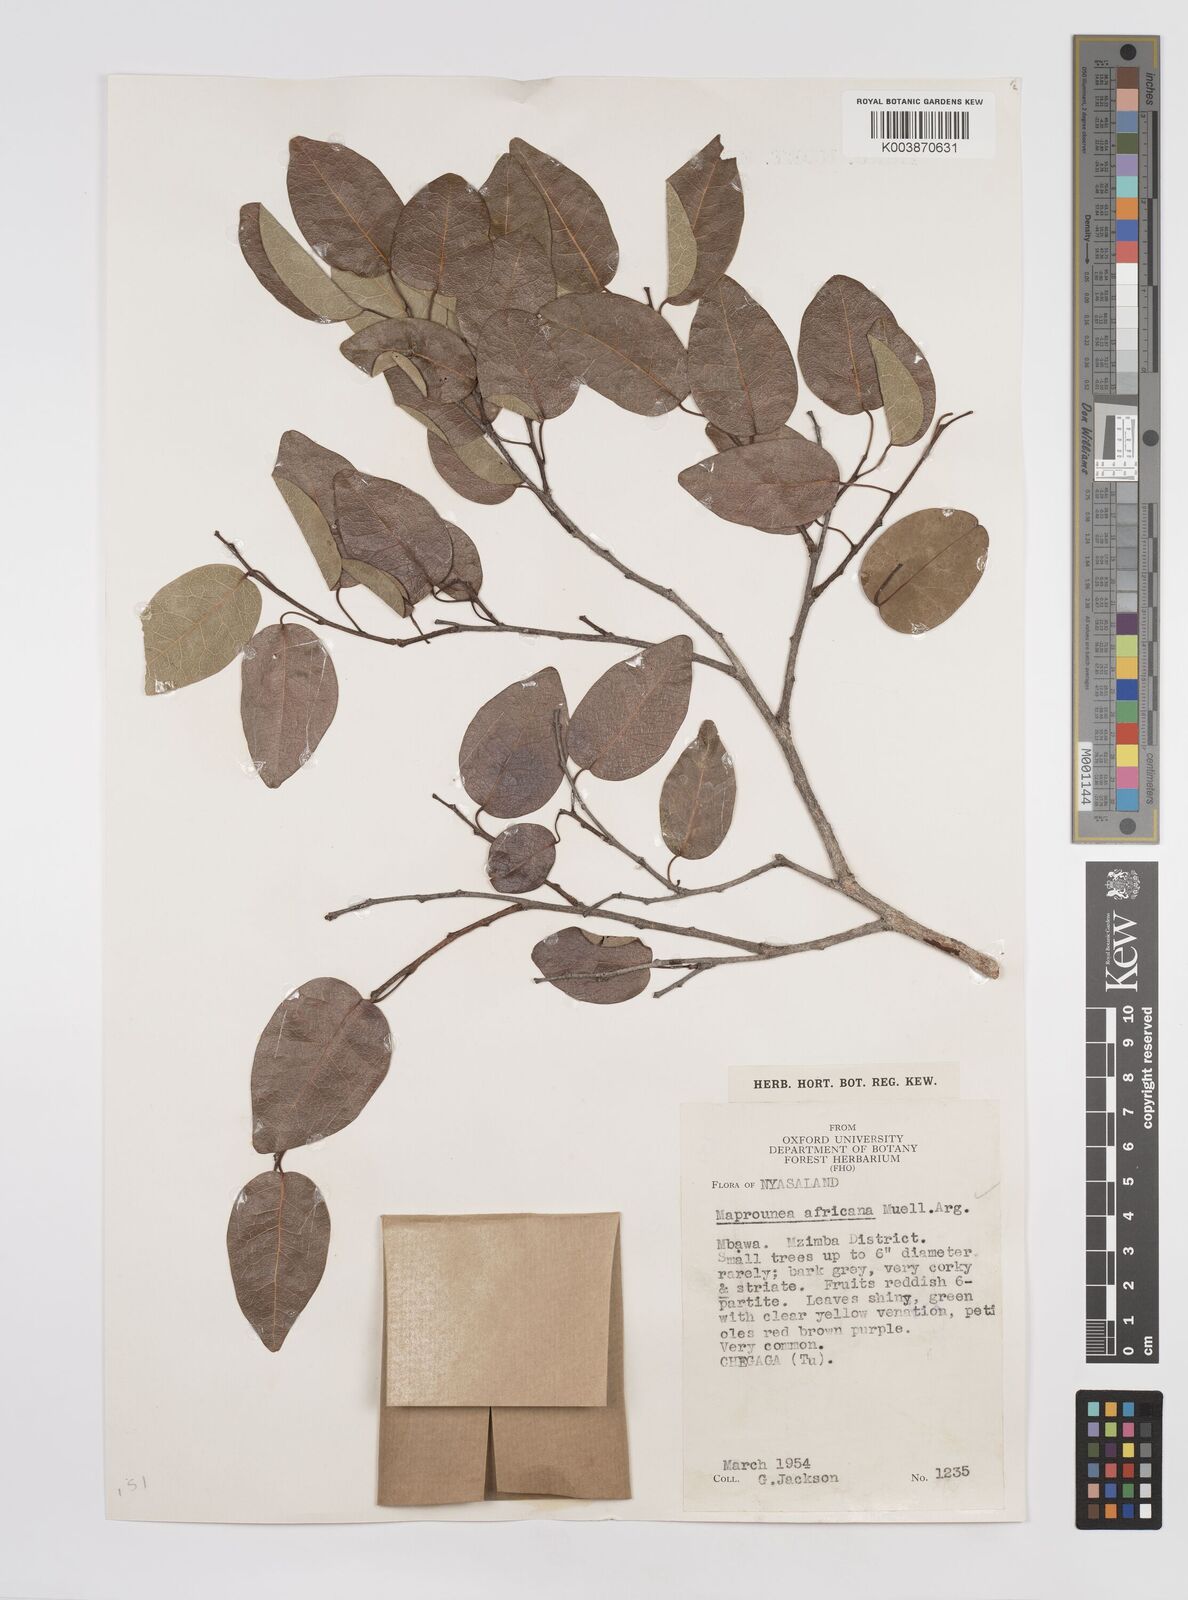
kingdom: Plantae
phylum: Tracheophyta
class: Magnoliopsida
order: Malpighiales
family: Euphorbiaceae
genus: Maprounea
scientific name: Maprounea africana
